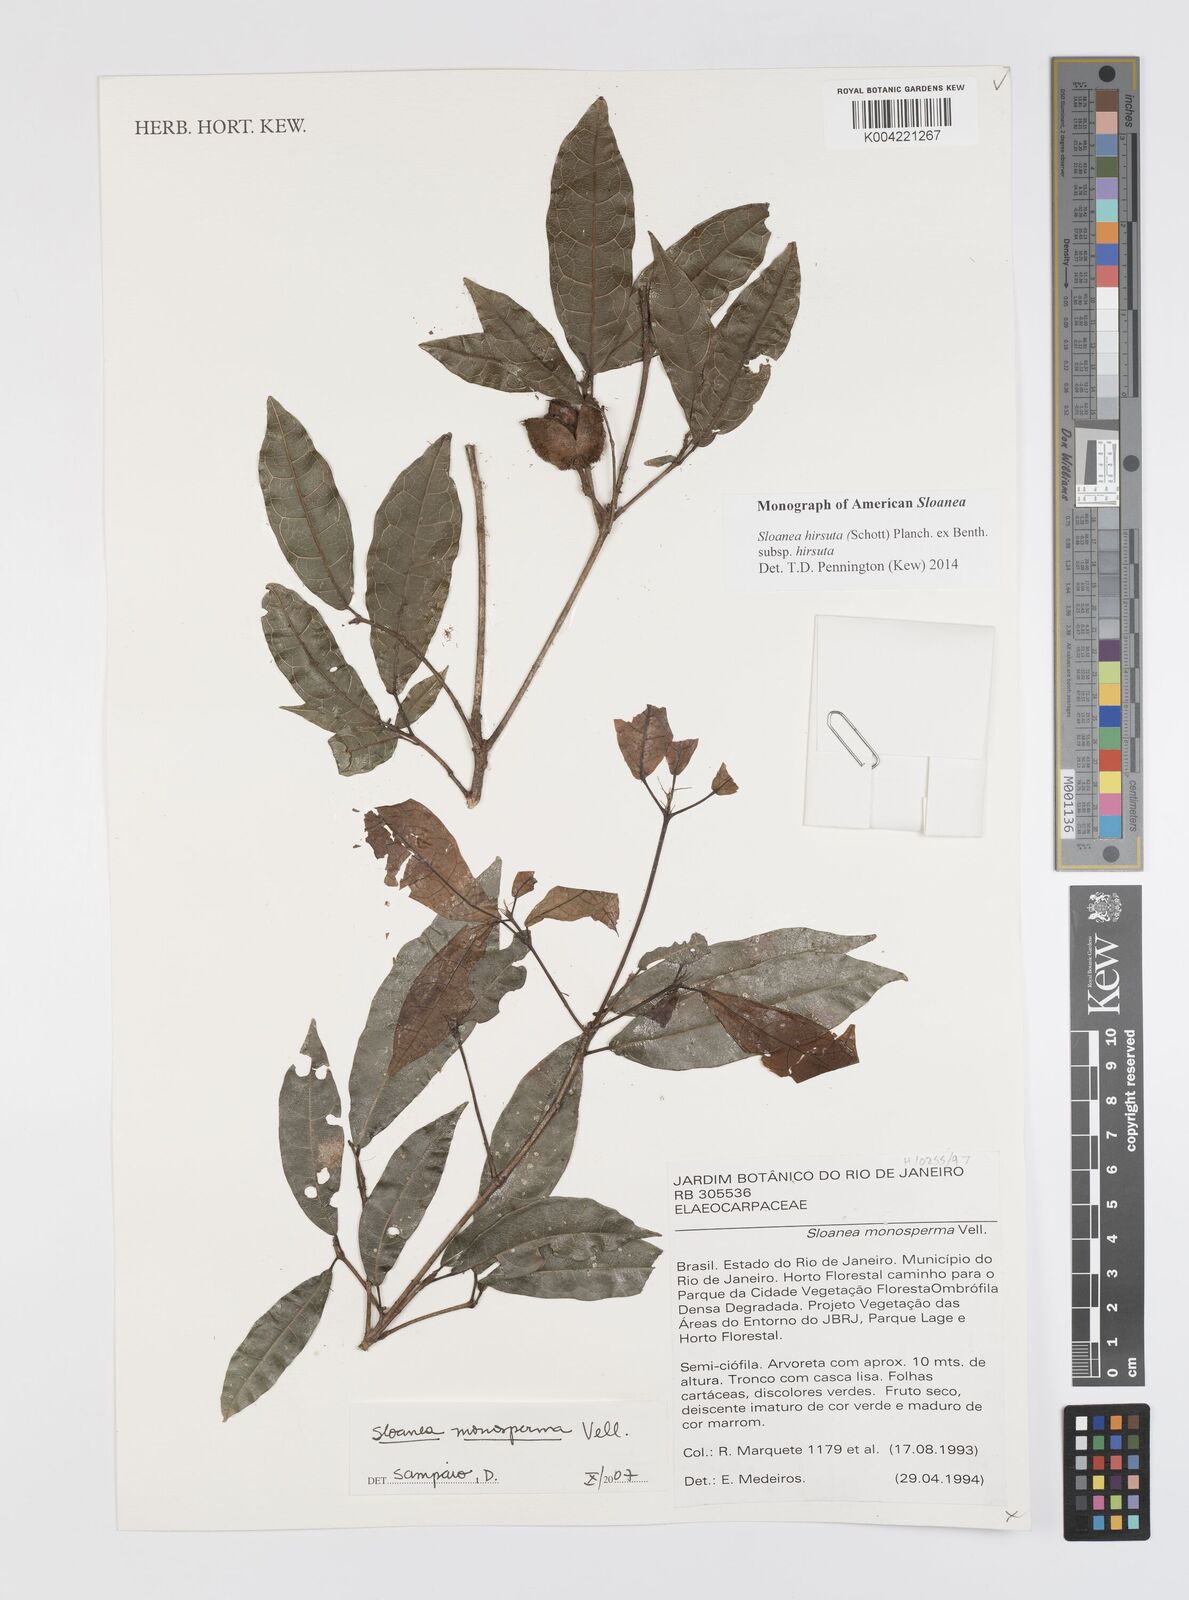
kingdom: Plantae
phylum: Tracheophyta
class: Magnoliopsida
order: Oxalidales
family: Elaeocarpaceae
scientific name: Elaeocarpaceae
